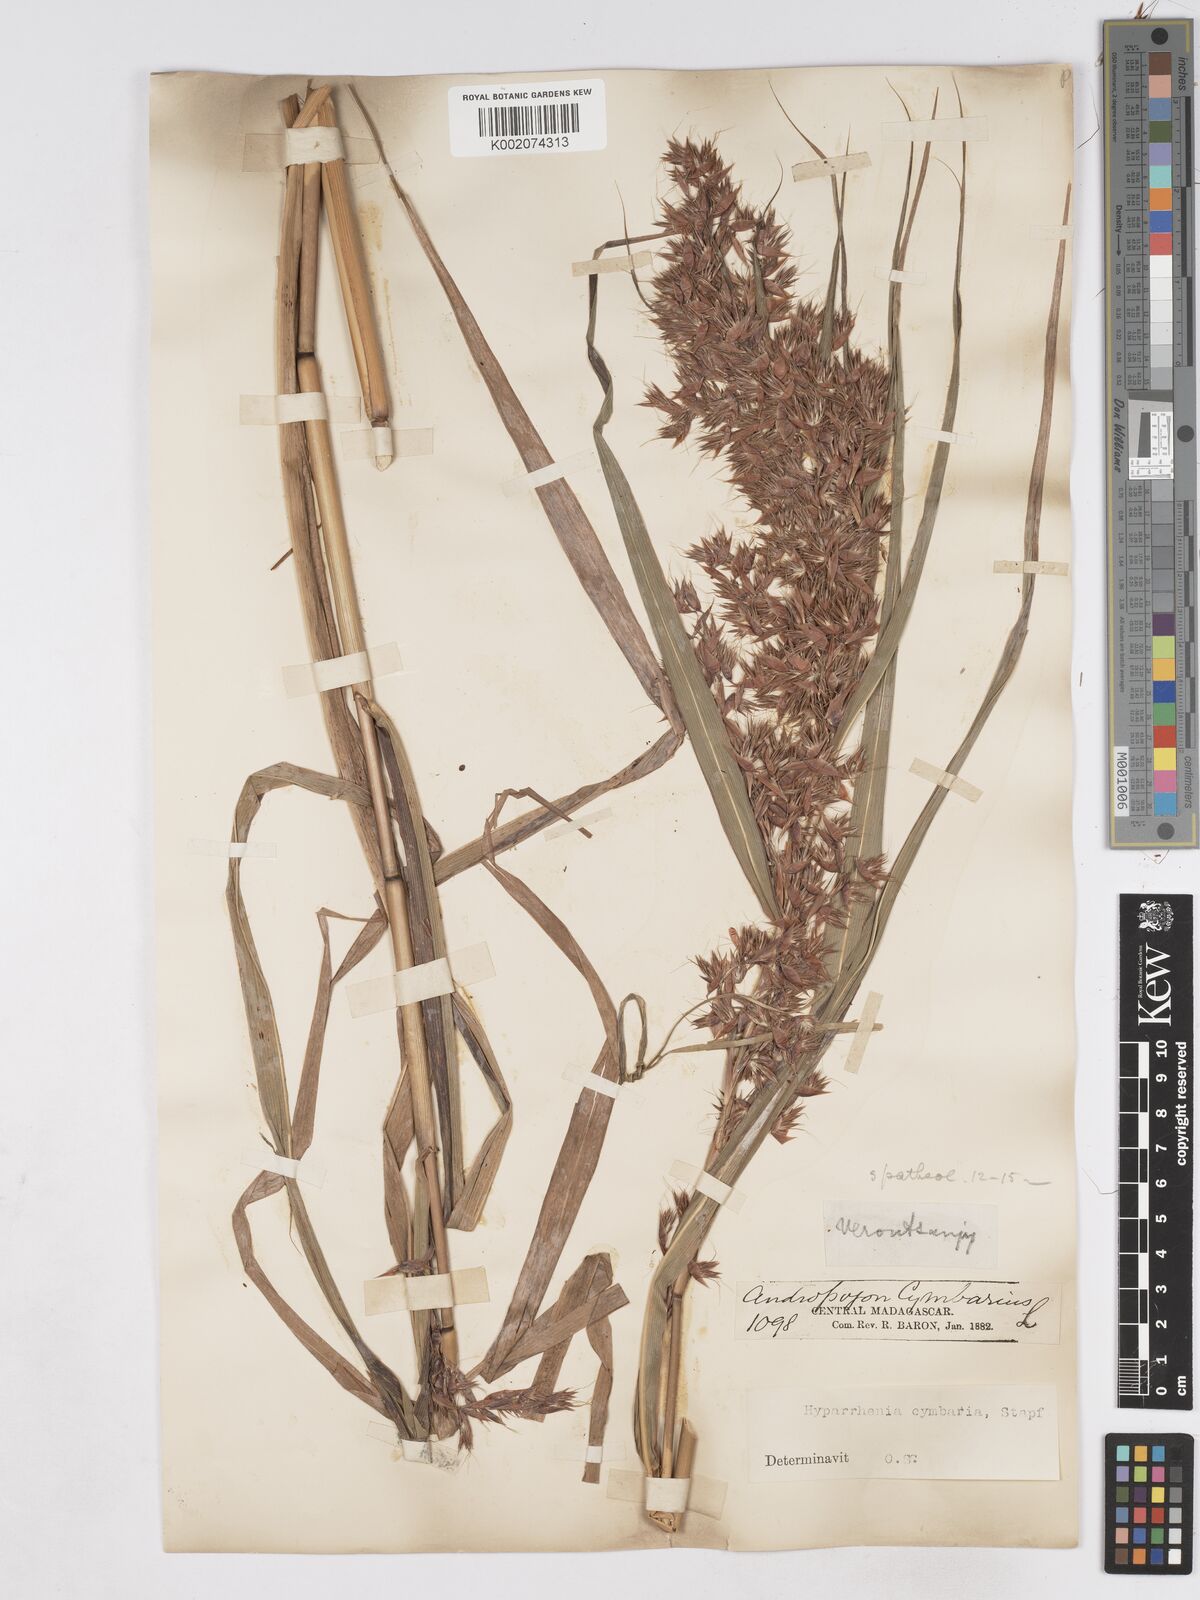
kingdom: Plantae
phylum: Tracheophyta
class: Liliopsida
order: Poales
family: Poaceae
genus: Hyparrhenia
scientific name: Hyparrhenia cymbaria
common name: Boat thatching grass
